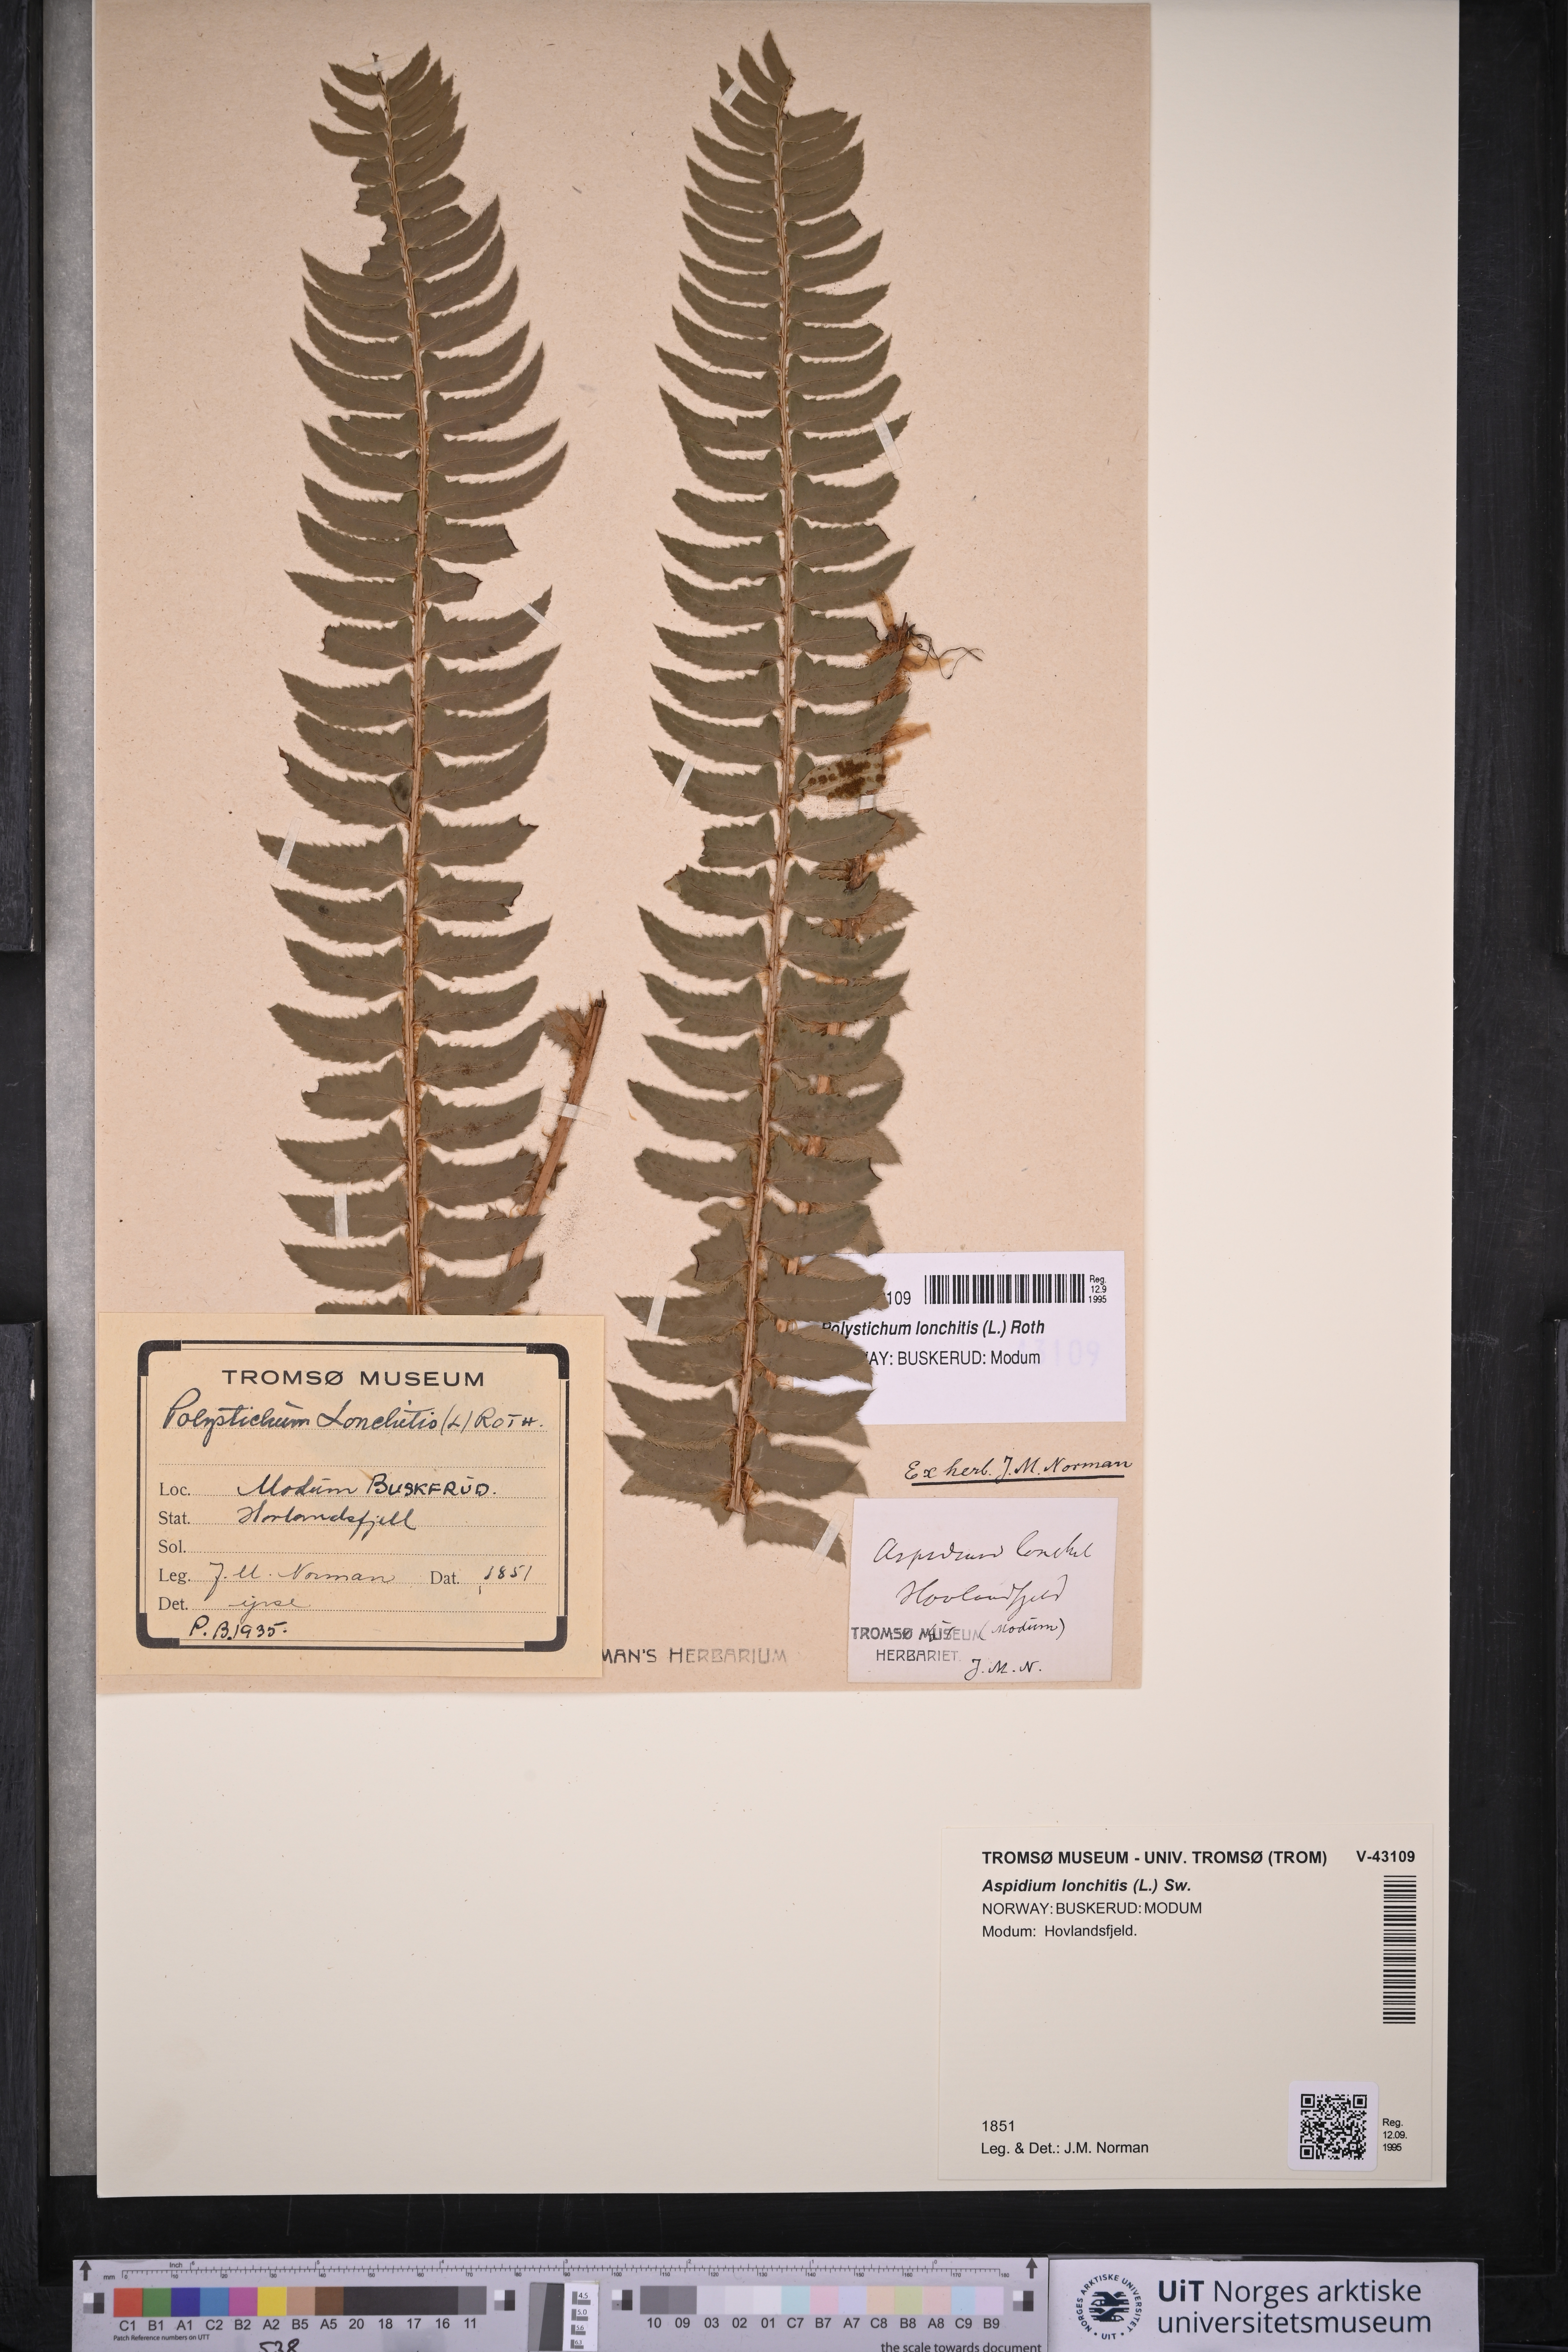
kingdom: Plantae
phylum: Tracheophyta
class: Polypodiopsida
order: Polypodiales
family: Dryopteridaceae
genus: Polystichum
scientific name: Polystichum lonchitis
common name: Holly fern
